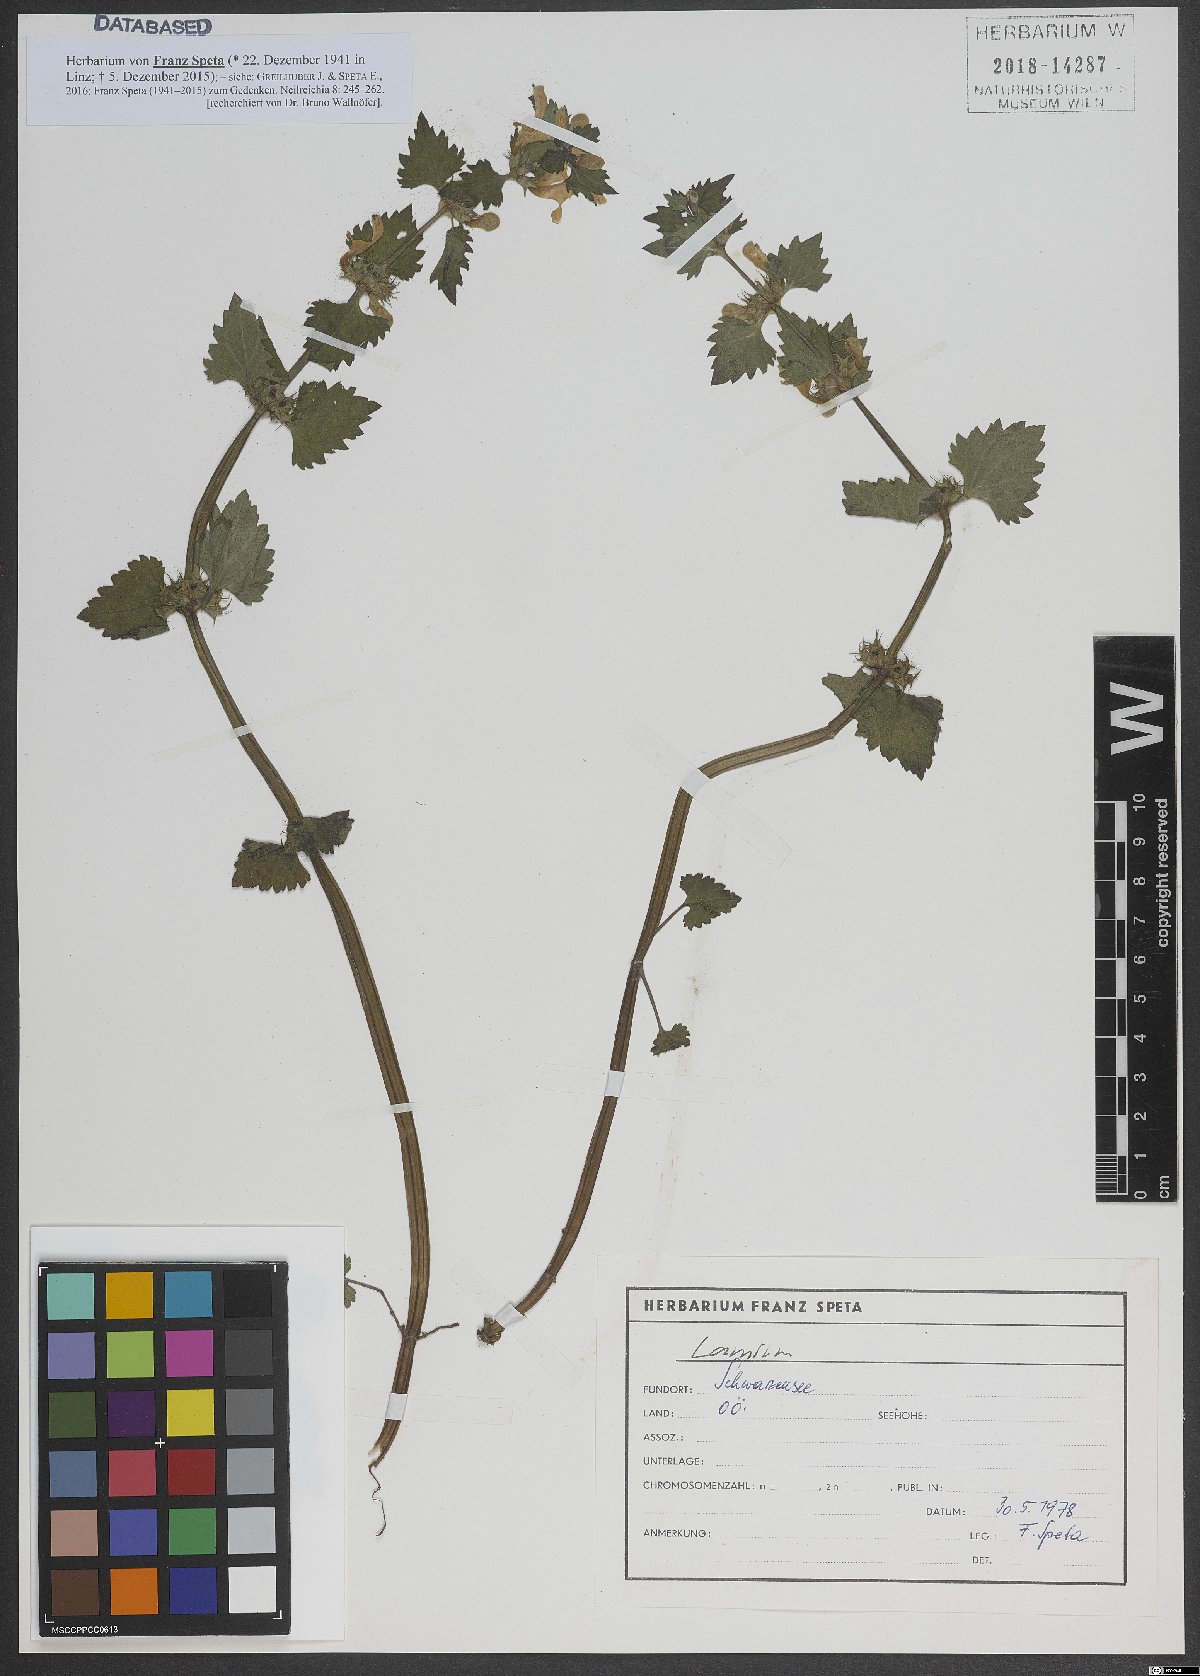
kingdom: Plantae
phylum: Tracheophyta
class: Magnoliopsida
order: Lamiales
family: Lamiaceae
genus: Lamium
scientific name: Lamium
